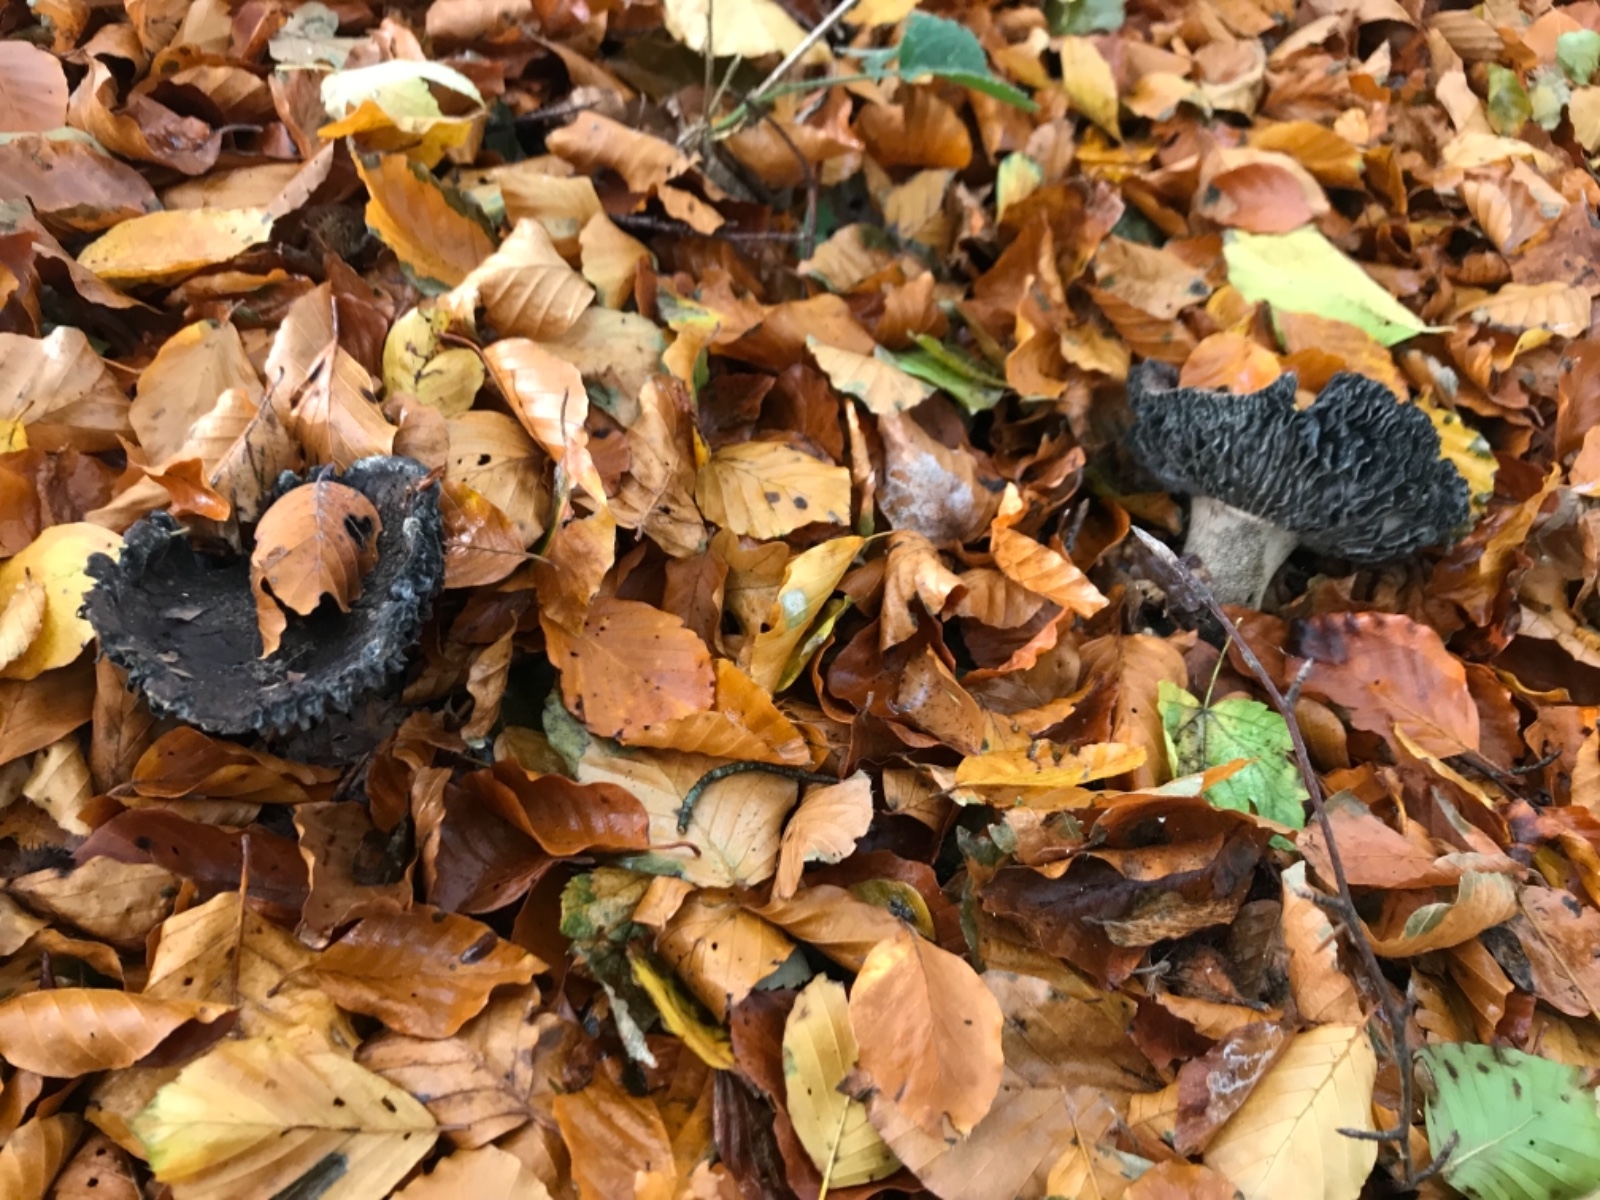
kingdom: Fungi
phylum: Basidiomycota
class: Agaricomycetes
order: Russulales
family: Russulaceae
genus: Russula
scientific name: Russula adusta
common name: sværtende skørhat
